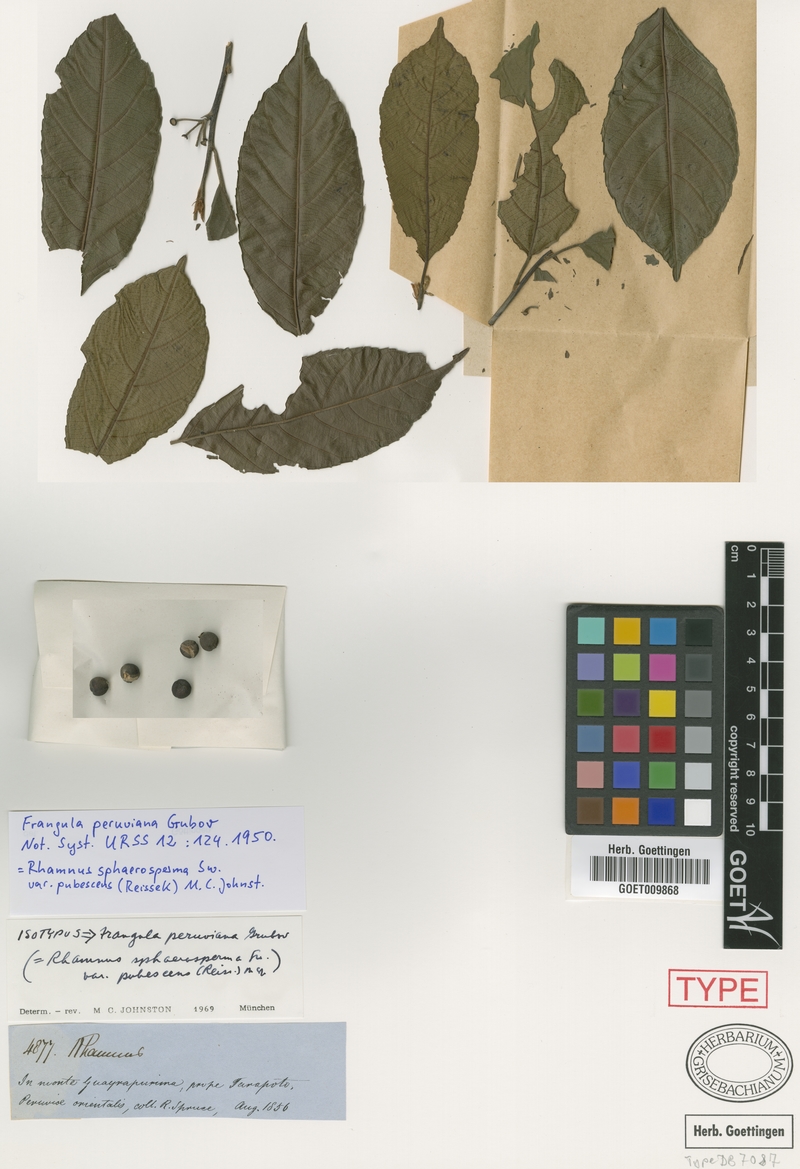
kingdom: Plantae
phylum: Tracheophyta
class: Magnoliopsida
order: Rosales
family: Rhamnaceae
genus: Frangula
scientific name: Frangula
